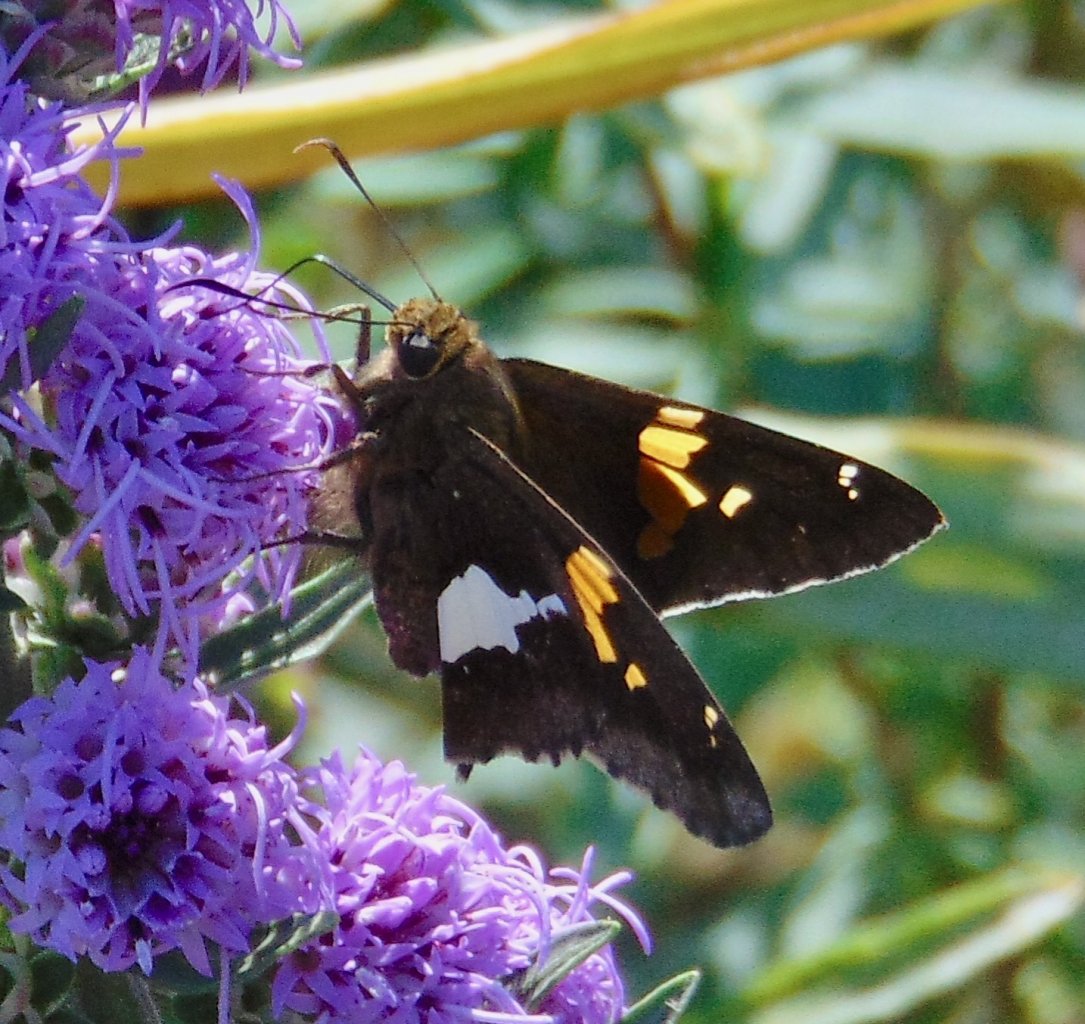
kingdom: Animalia
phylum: Arthropoda
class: Insecta
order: Lepidoptera
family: Hesperiidae
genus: Epargyreus
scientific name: Epargyreus clarus
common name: Silver-spotted Skipper
